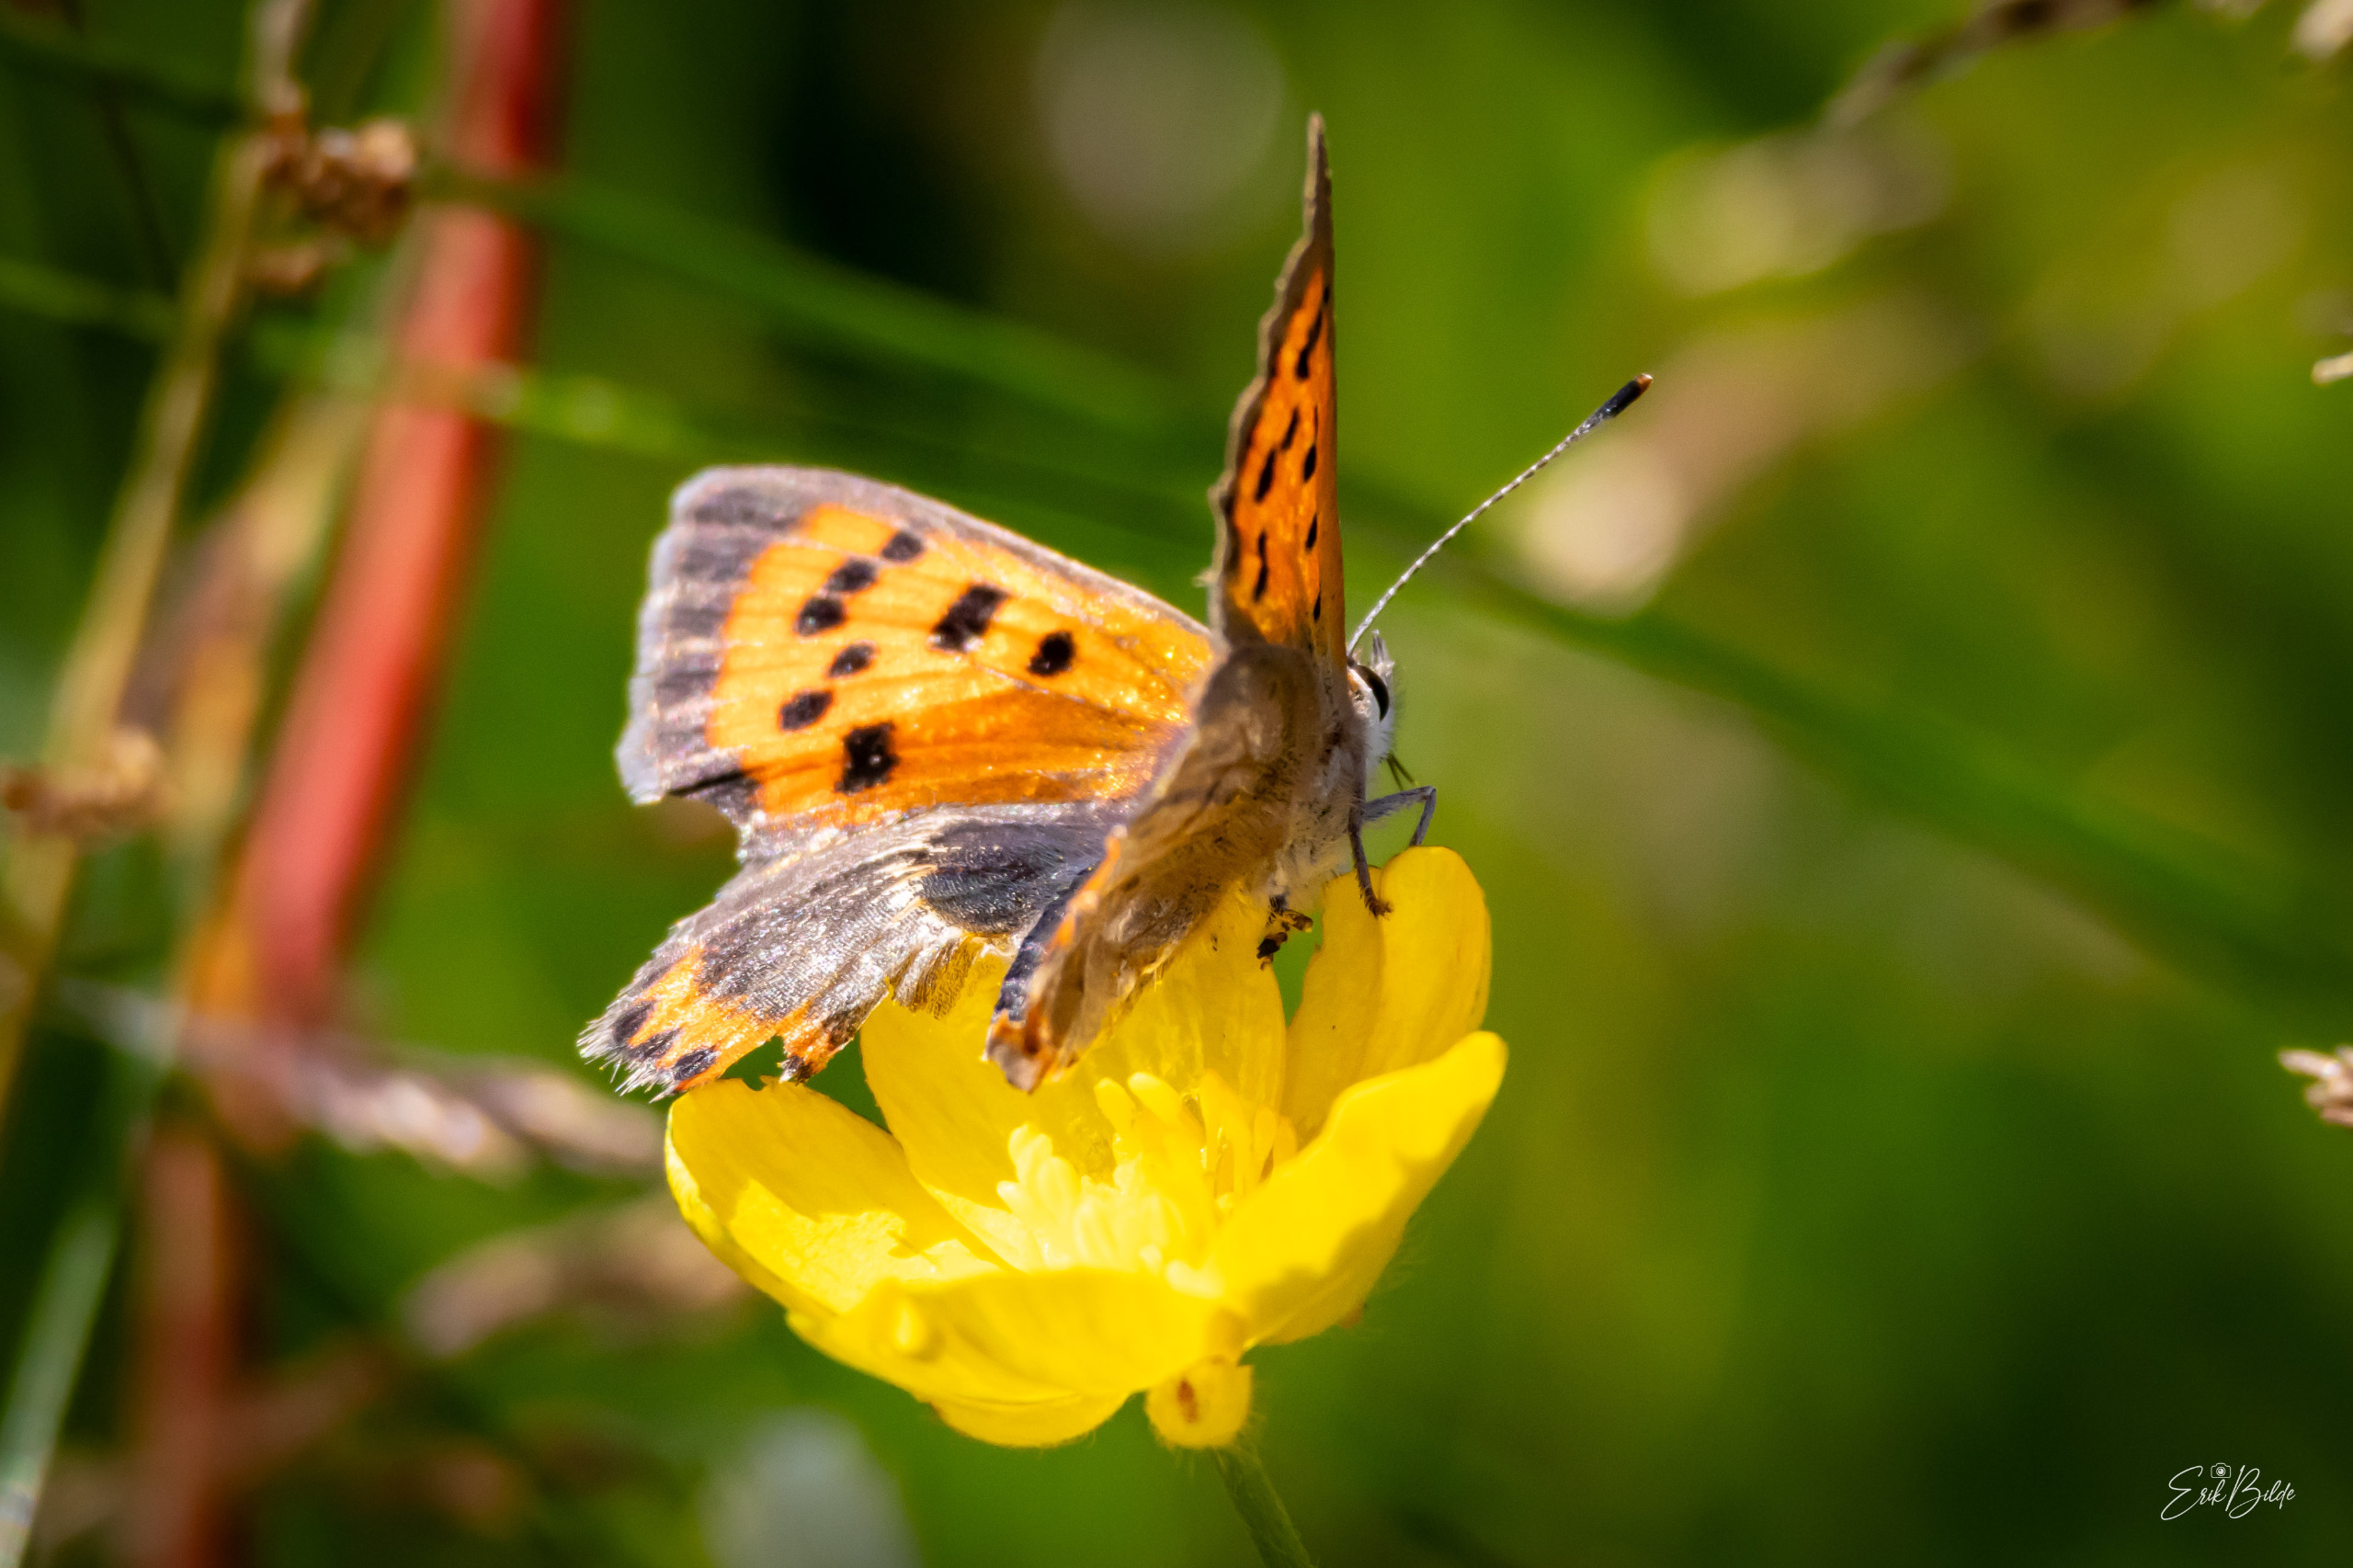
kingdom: Animalia
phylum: Arthropoda
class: Insecta
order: Lepidoptera
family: Lycaenidae
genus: Lycaena
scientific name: Lycaena phlaeas
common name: Lille ildfugl
